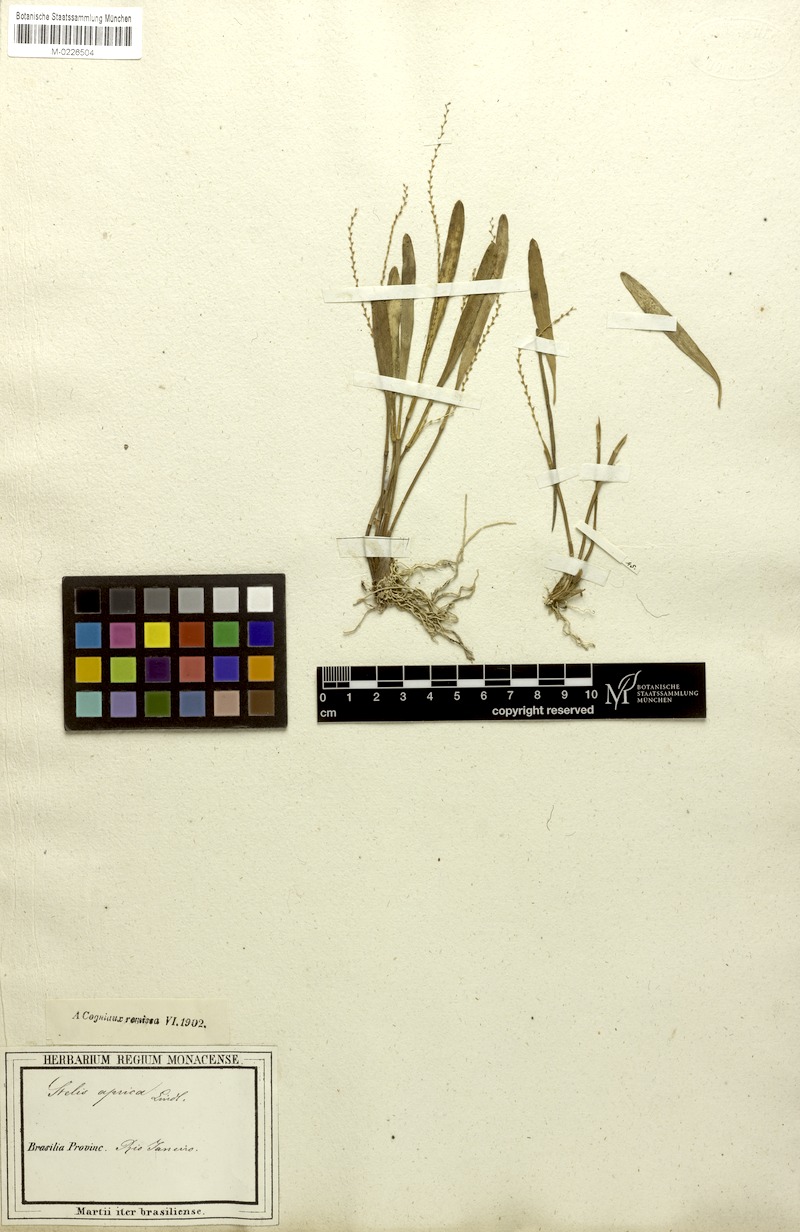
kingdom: Plantae
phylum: Tracheophyta
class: Liliopsida
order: Asparagales
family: Orchidaceae
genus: Stelis
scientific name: Stelis aprica
